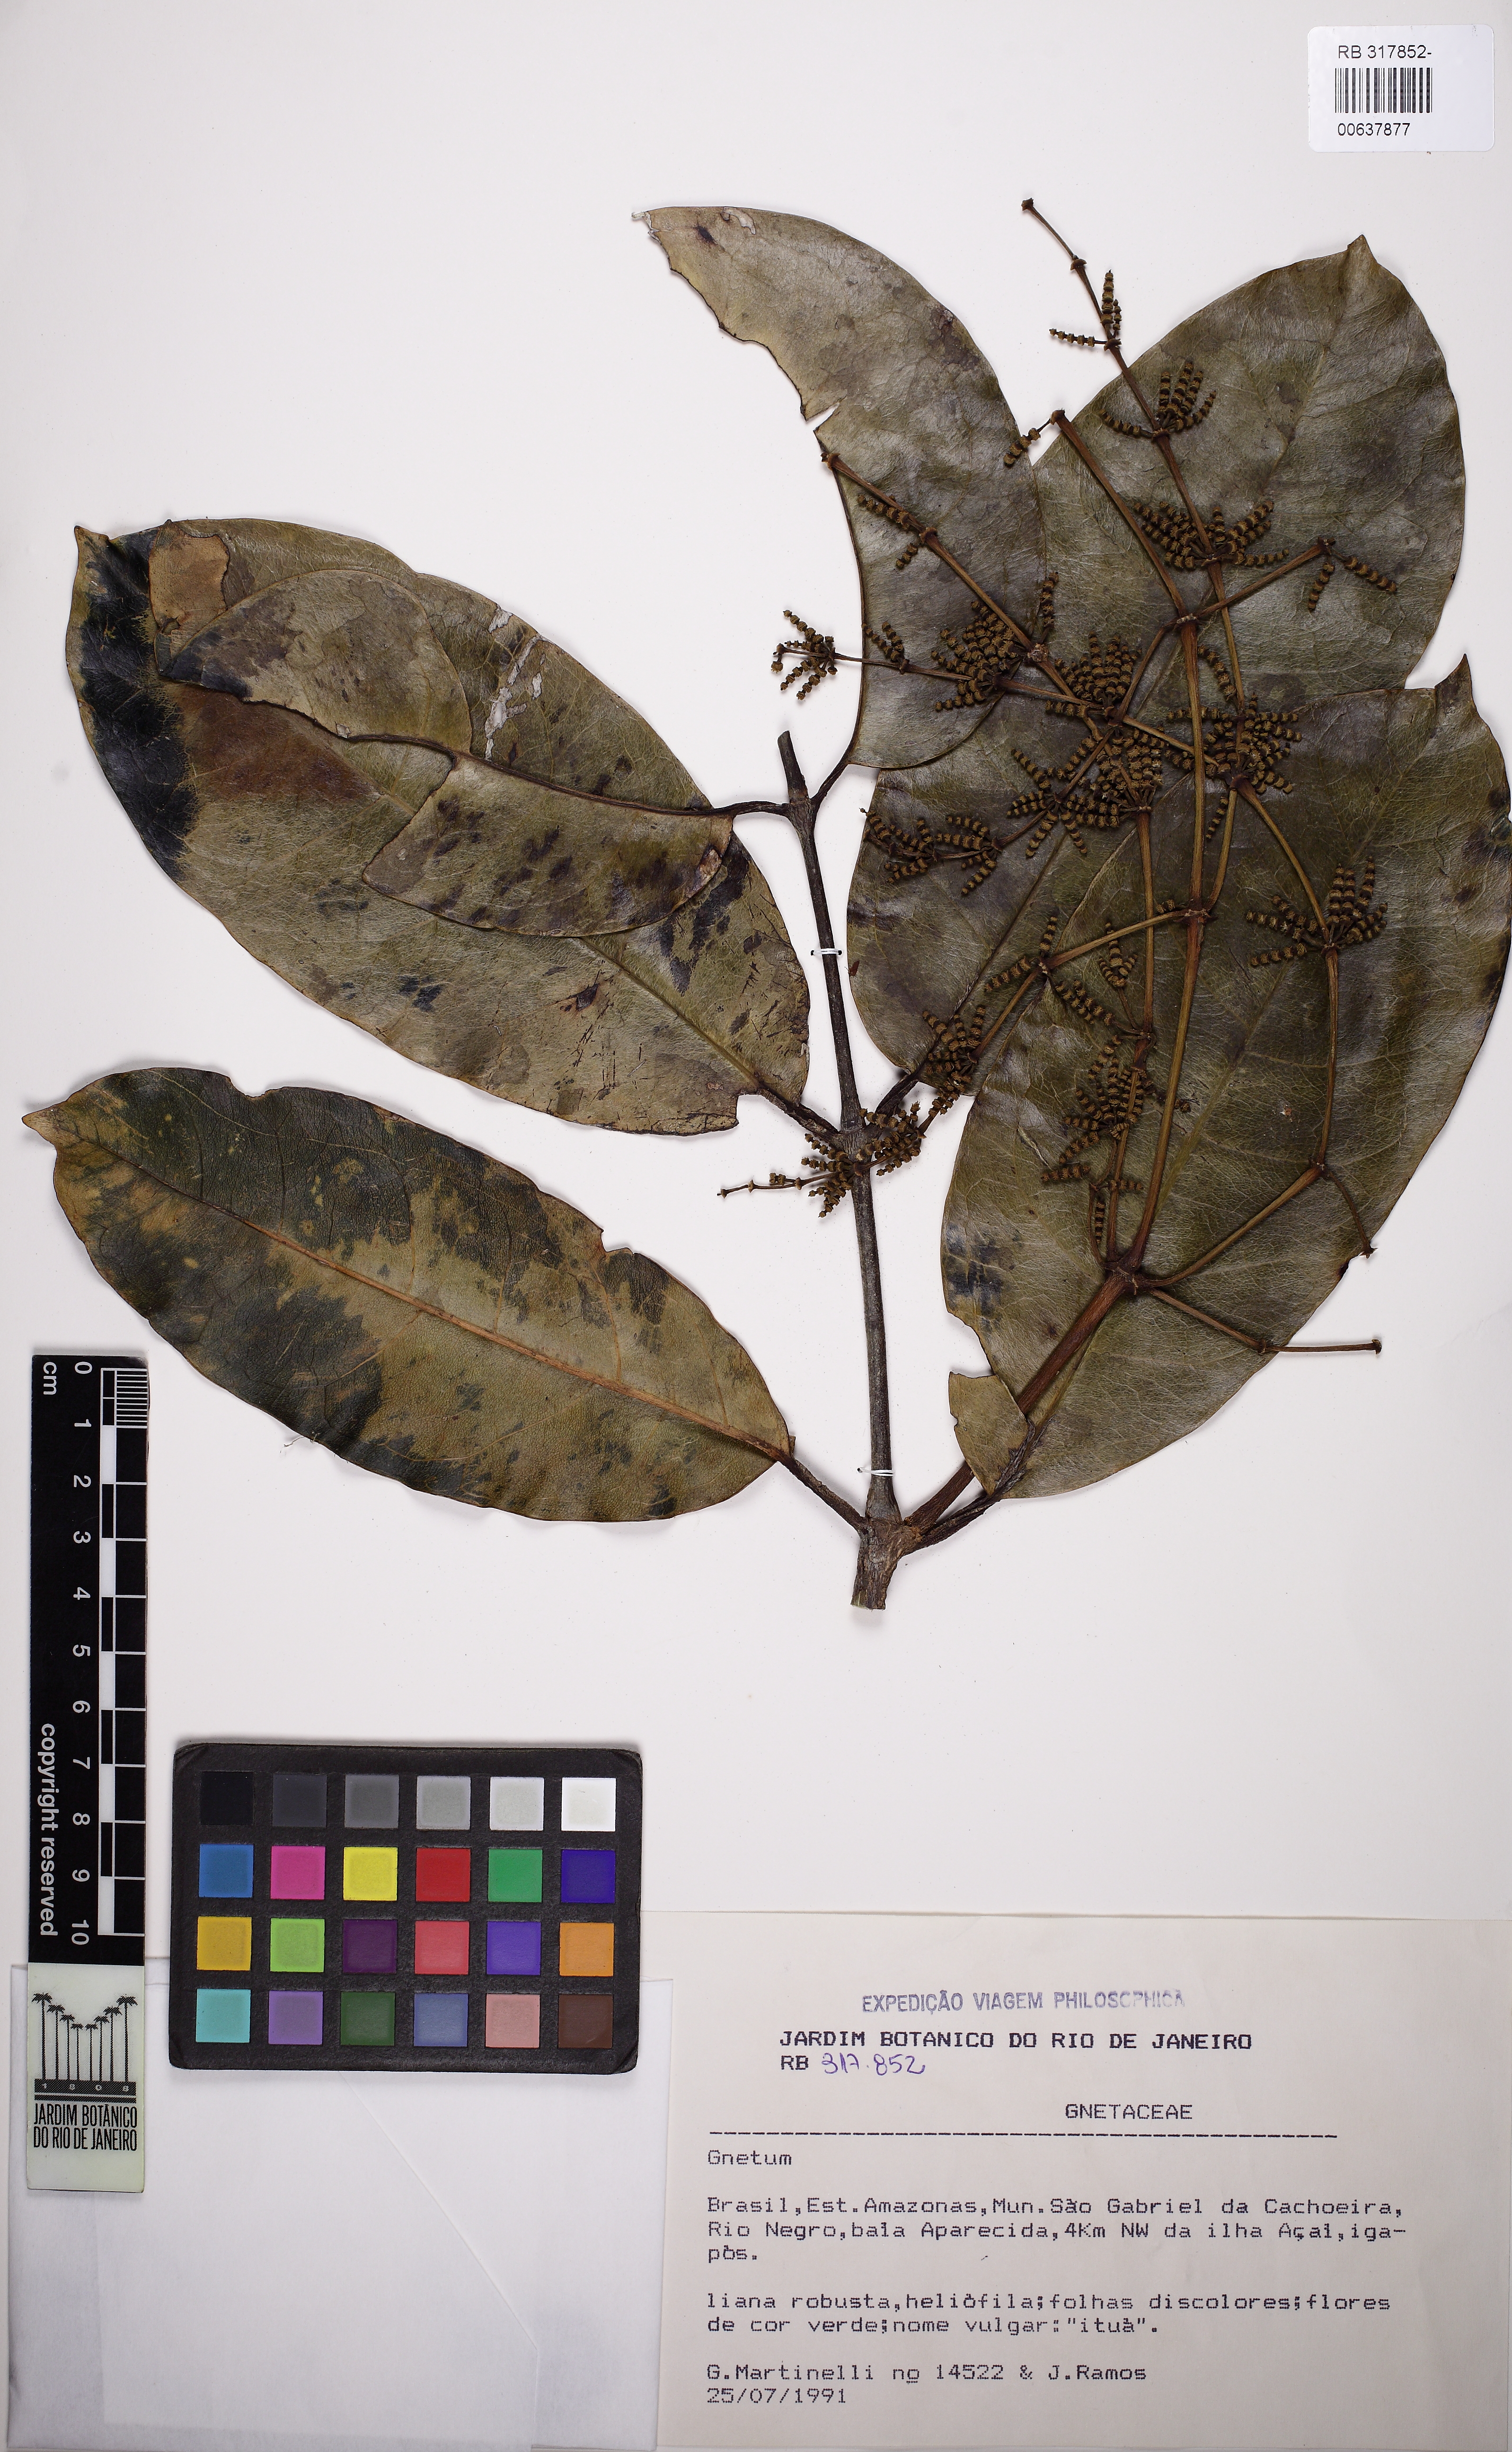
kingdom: Plantae
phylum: Tracheophyta
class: Gnetopsida
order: Gnetales
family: Gnetaceae
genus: Gnetum
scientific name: Gnetum
